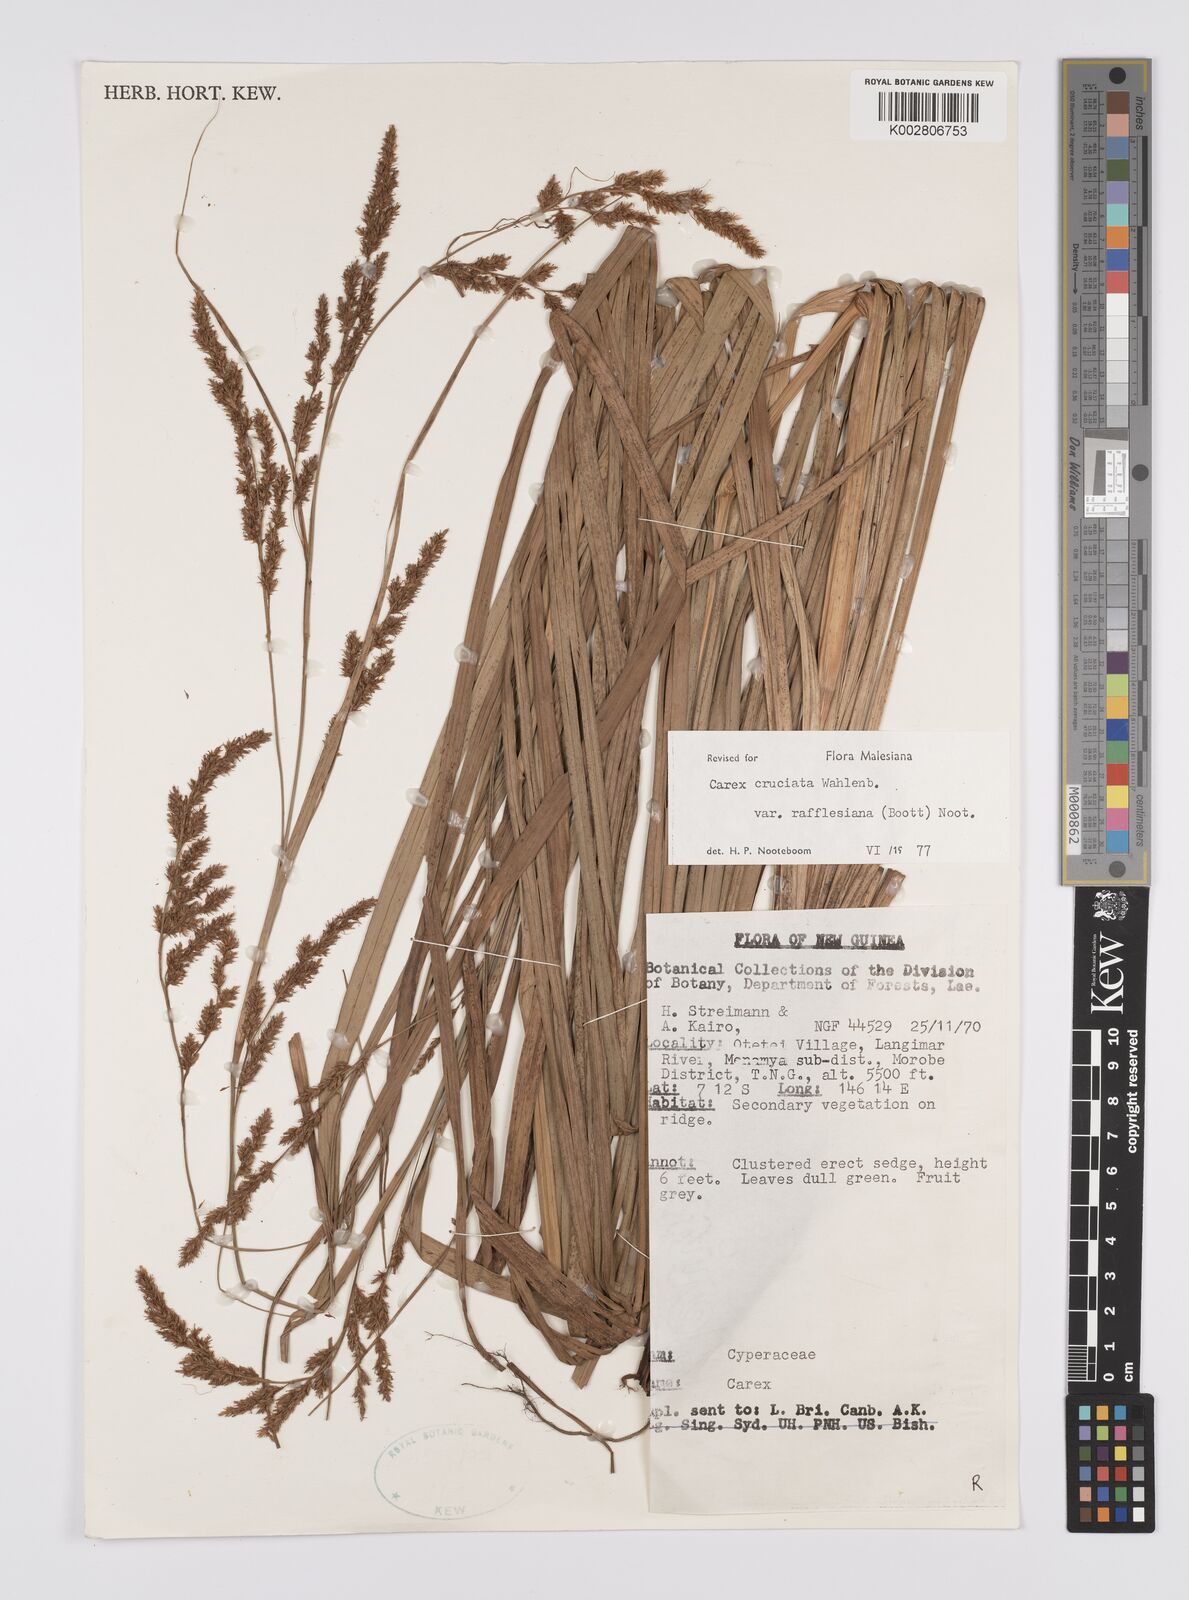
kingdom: Plantae
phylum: Tracheophyta
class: Liliopsida
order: Poales
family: Cyperaceae
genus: Carex
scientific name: Carex rafflesiana
